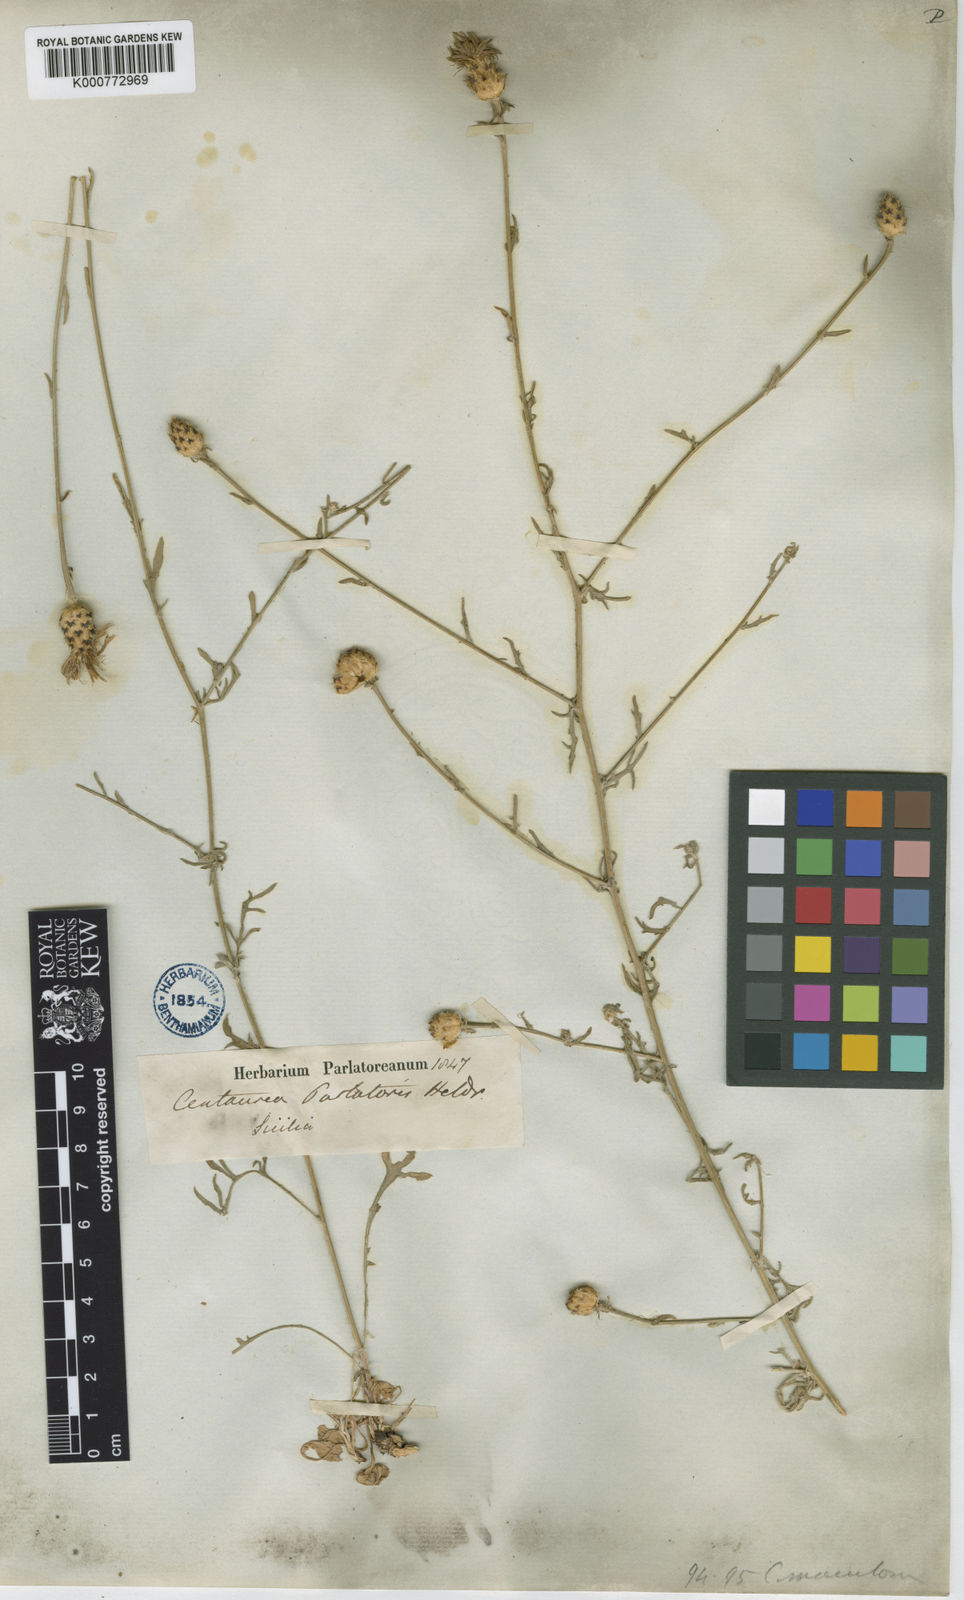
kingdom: Plantae
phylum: Tracheophyta
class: Magnoliopsida
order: Asterales
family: Asteraceae
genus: Centaurea
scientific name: Centaurea parlatoris
